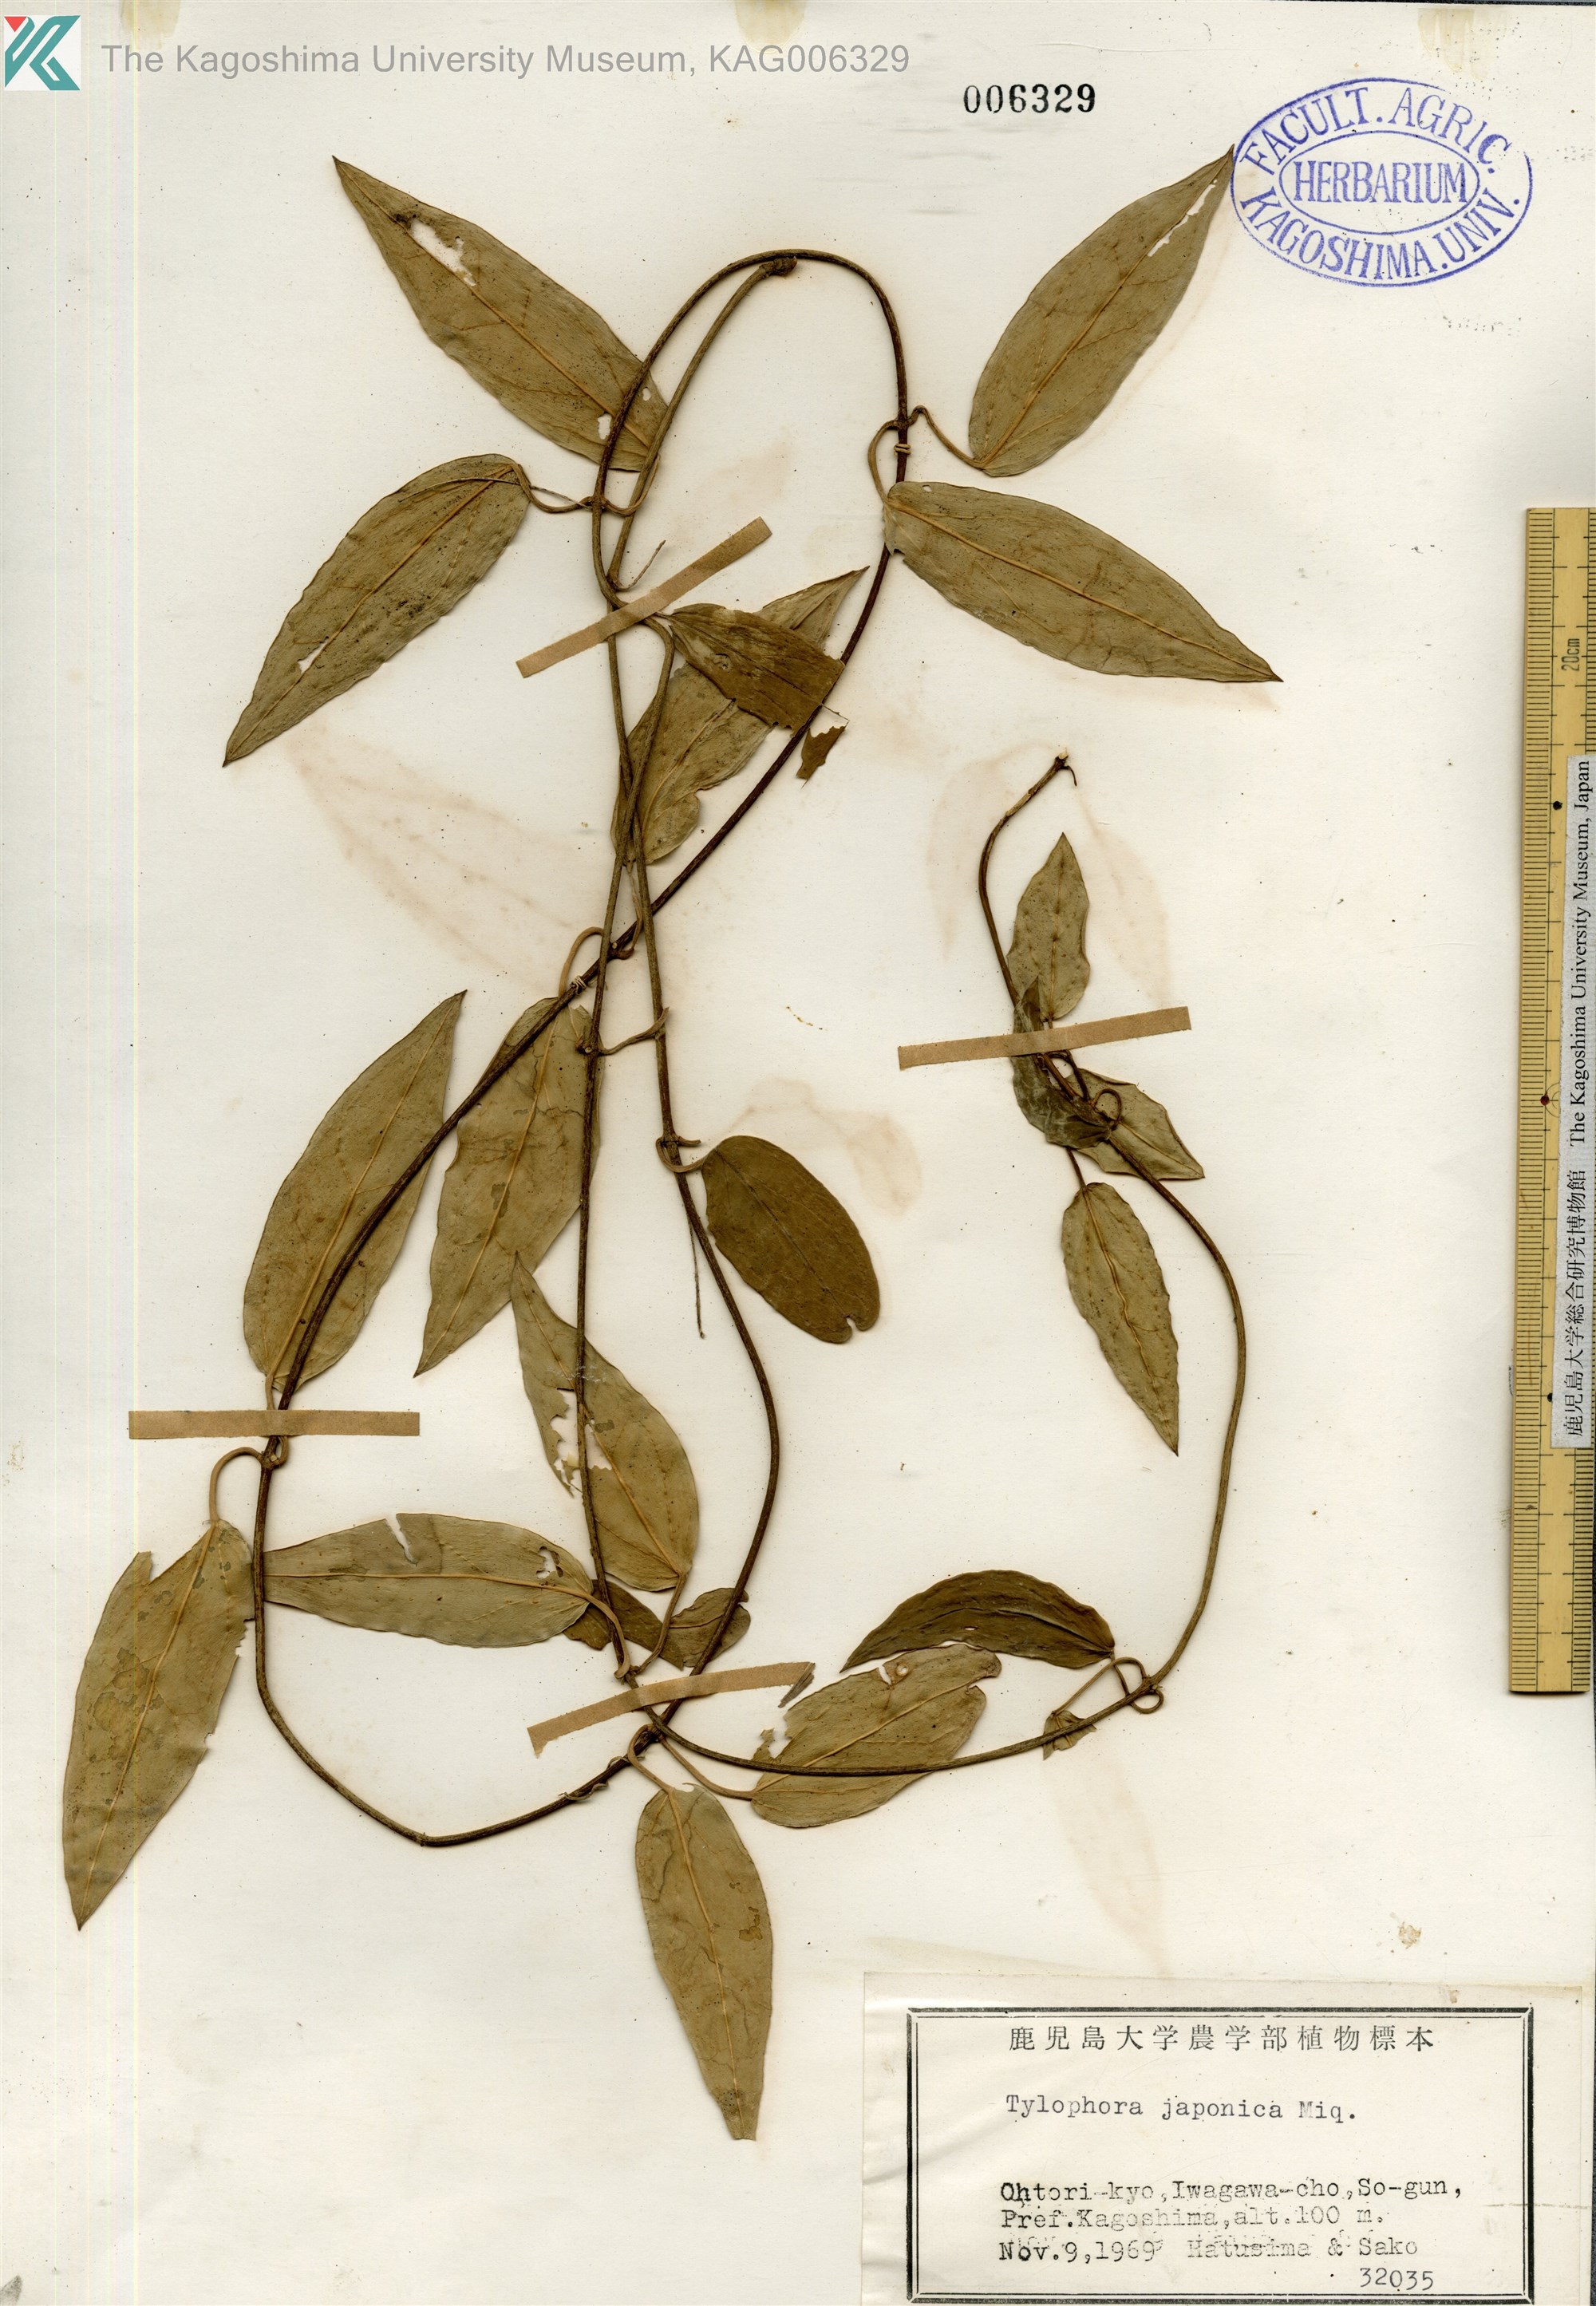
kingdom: Plantae
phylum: Tracheophyta
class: Magnoliopsida
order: Gentianales
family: Apocynaceae
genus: Vincetoxicum
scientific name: Vincetoxicum sieboldii
